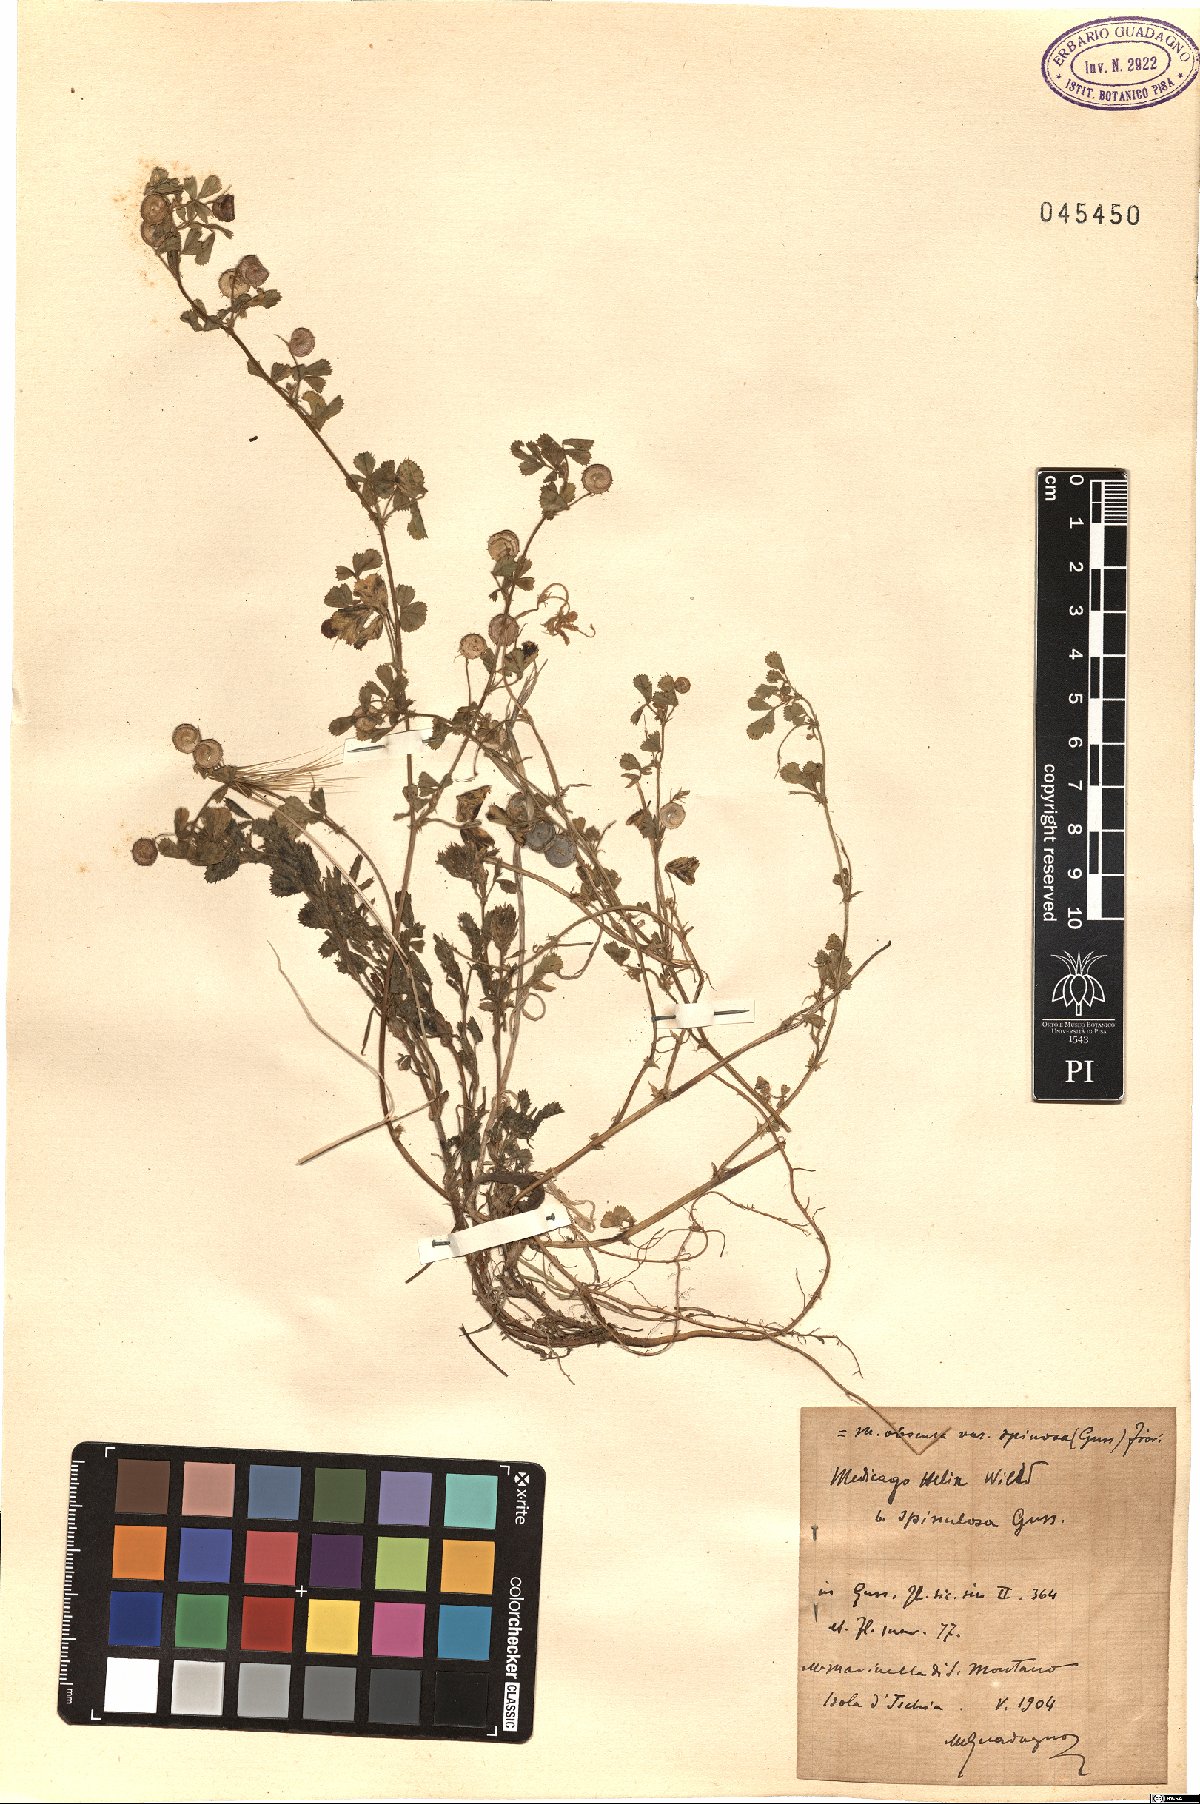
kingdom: Plantae
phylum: Tracheophyta
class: Magnoliopsida
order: Fabales
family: Fabaceae
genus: Medicago
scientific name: Medicago tornata
